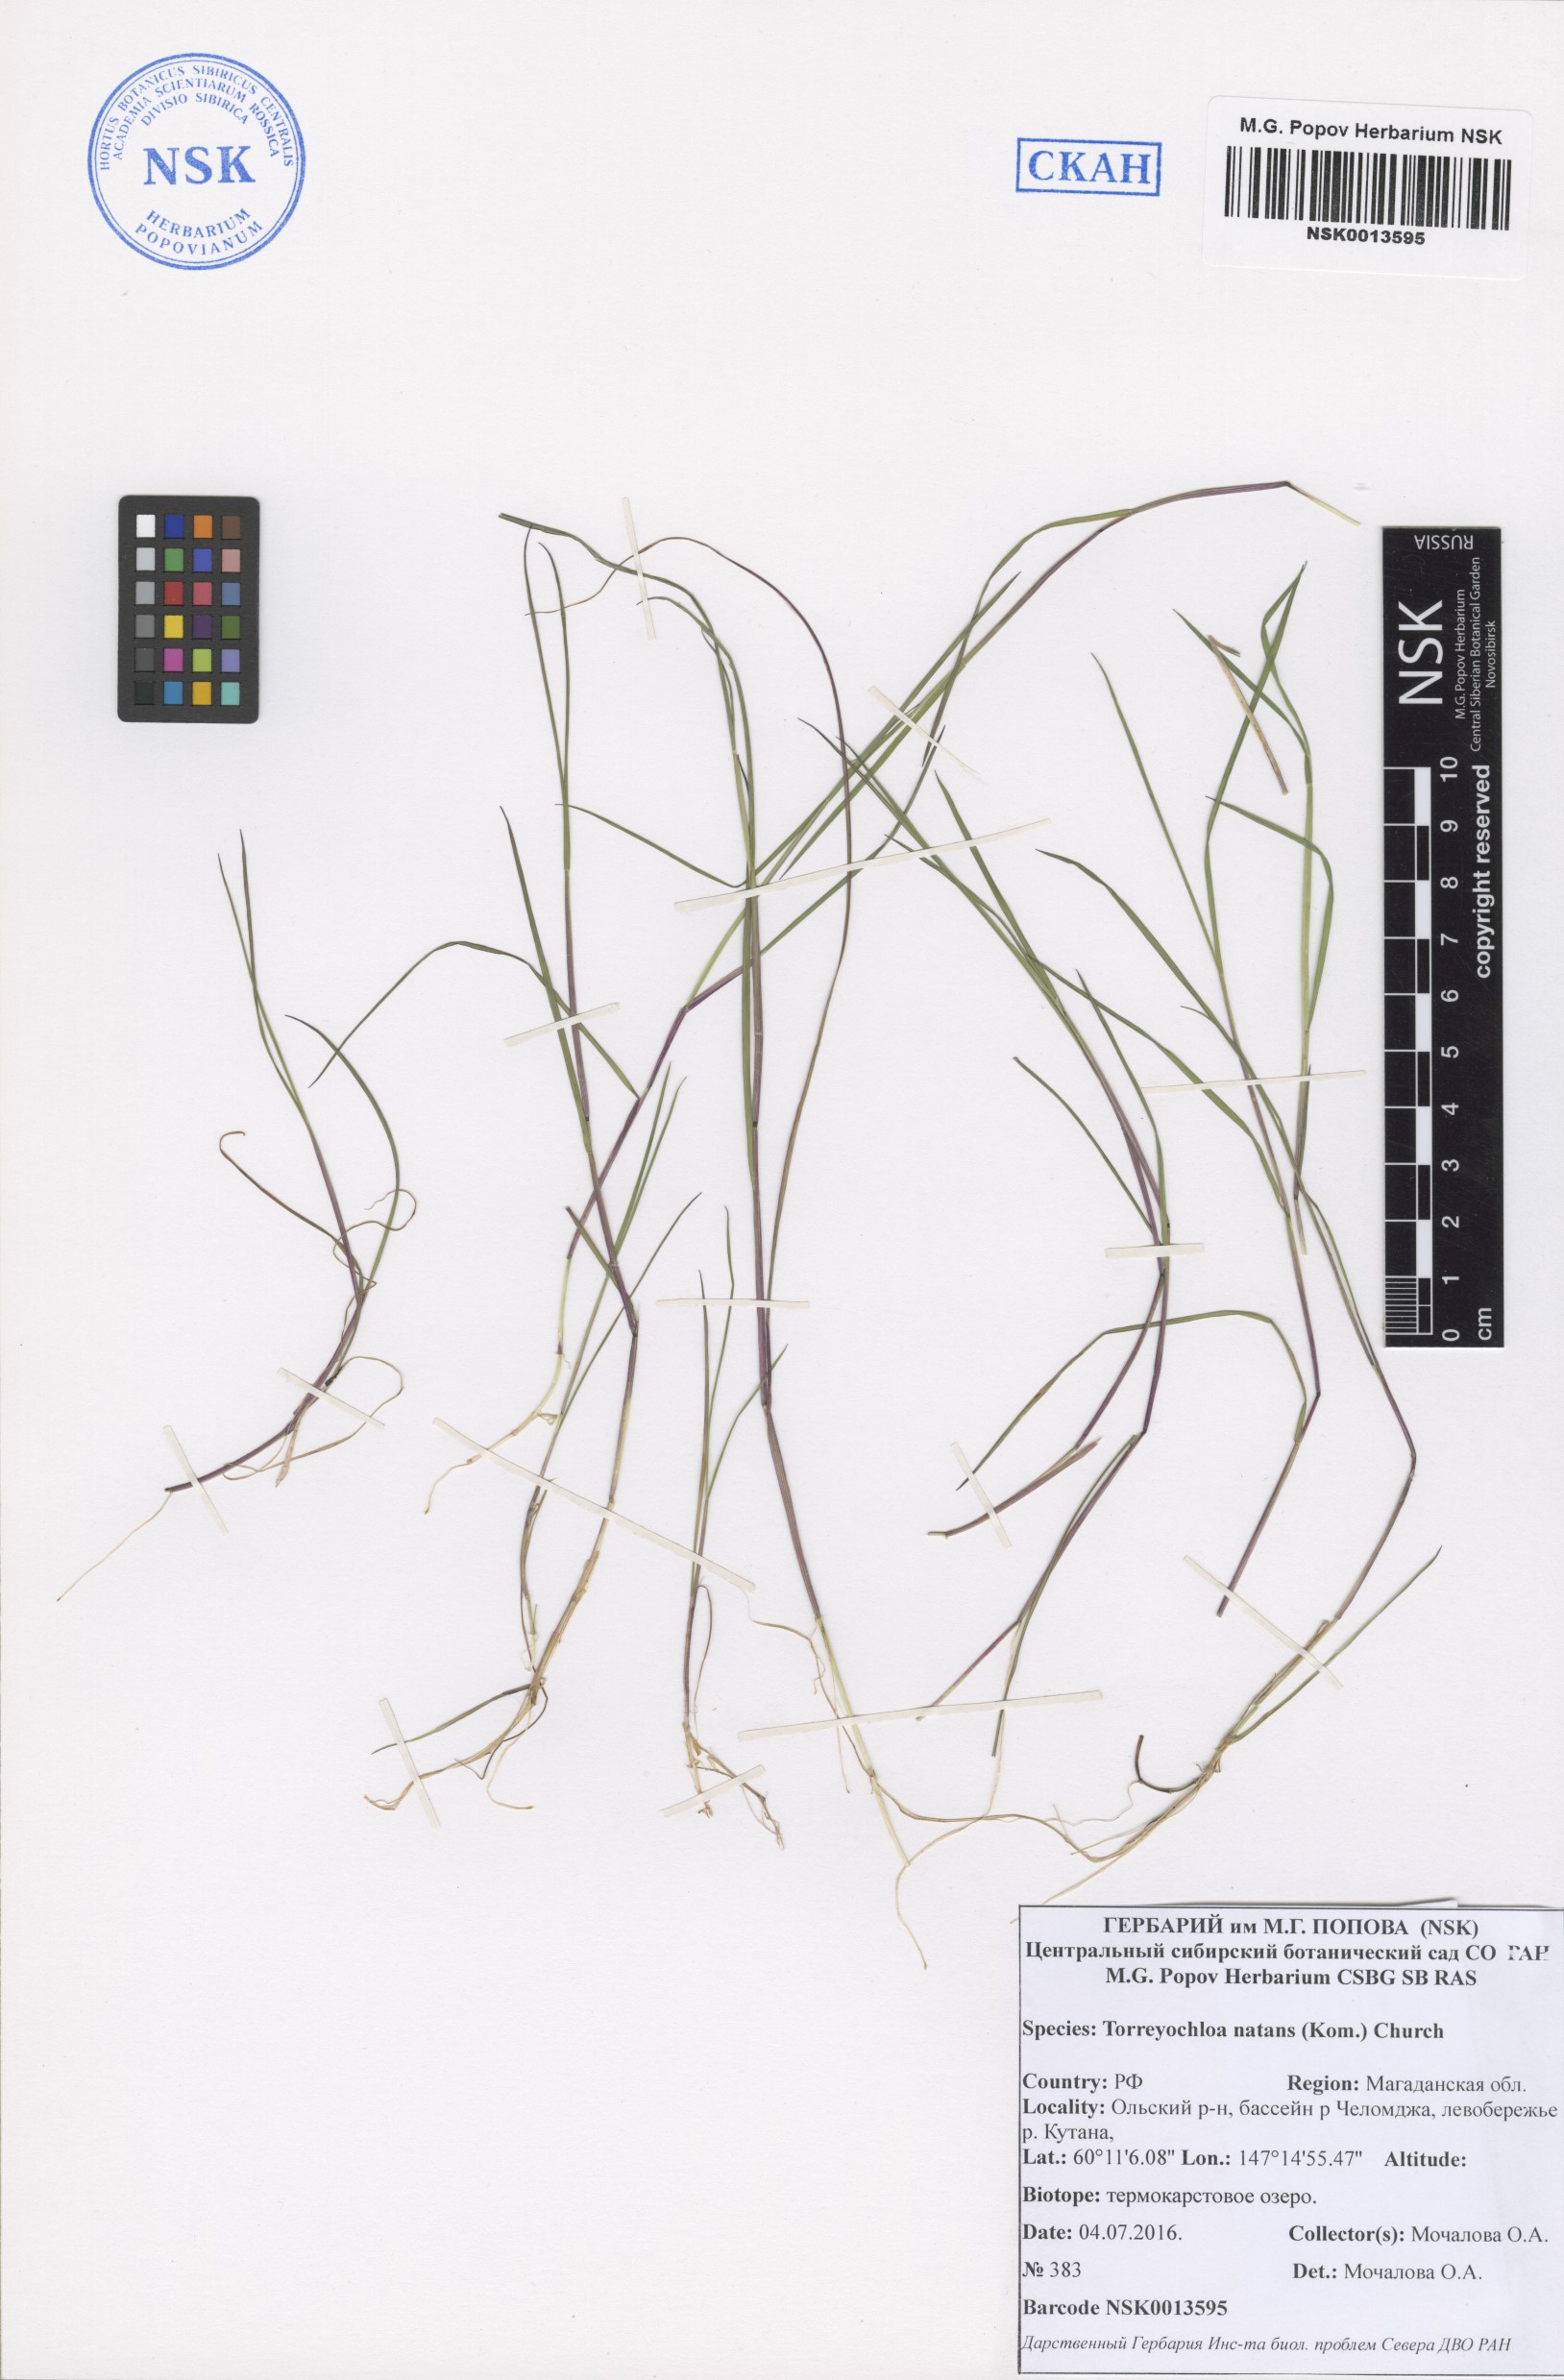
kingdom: Plantae
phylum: Tracheophyta
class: Liliopsida
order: Poales
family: Poaceae
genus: Torreyochloa
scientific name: Torreyochloa natans
